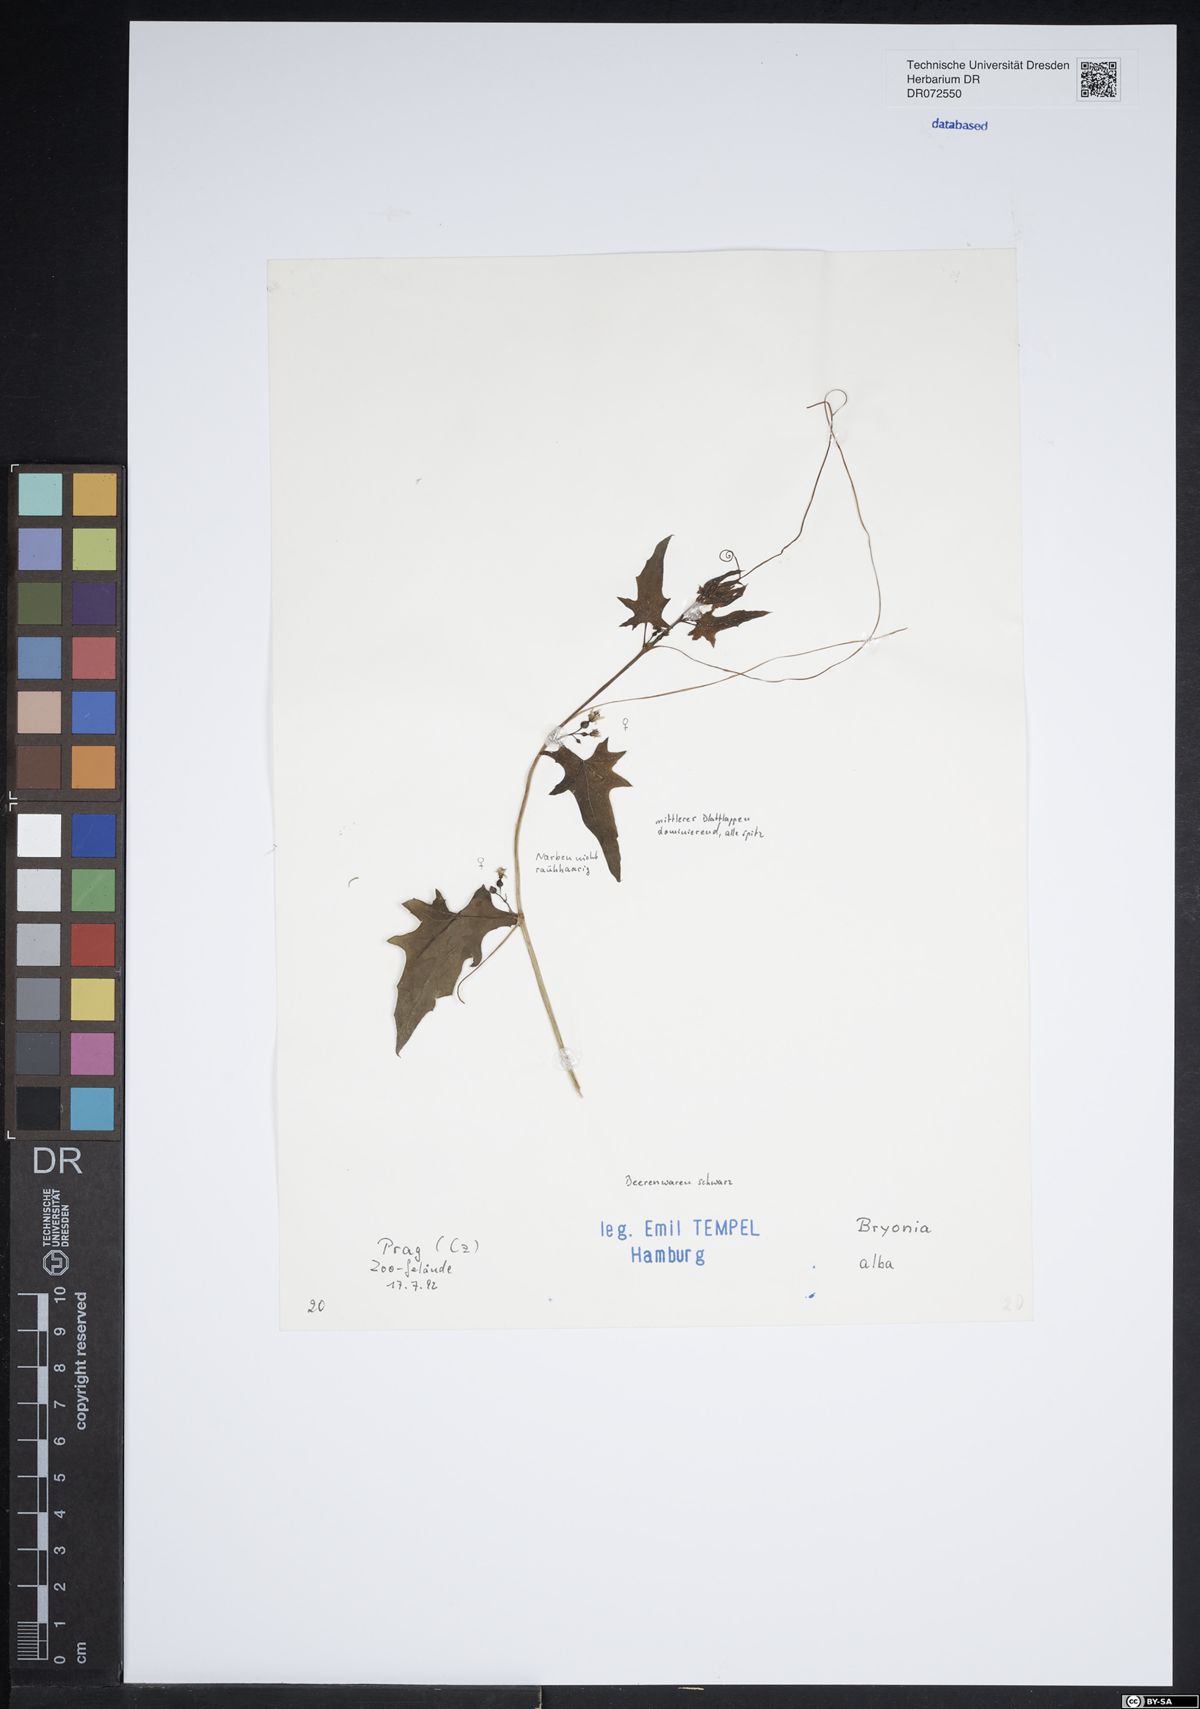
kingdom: Plantae
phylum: Tracheophyta
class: Magnoliopsida
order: Cucurbitales
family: Cucurbitaceae
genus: Bryonia
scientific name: Bryonia alba
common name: White bryony
